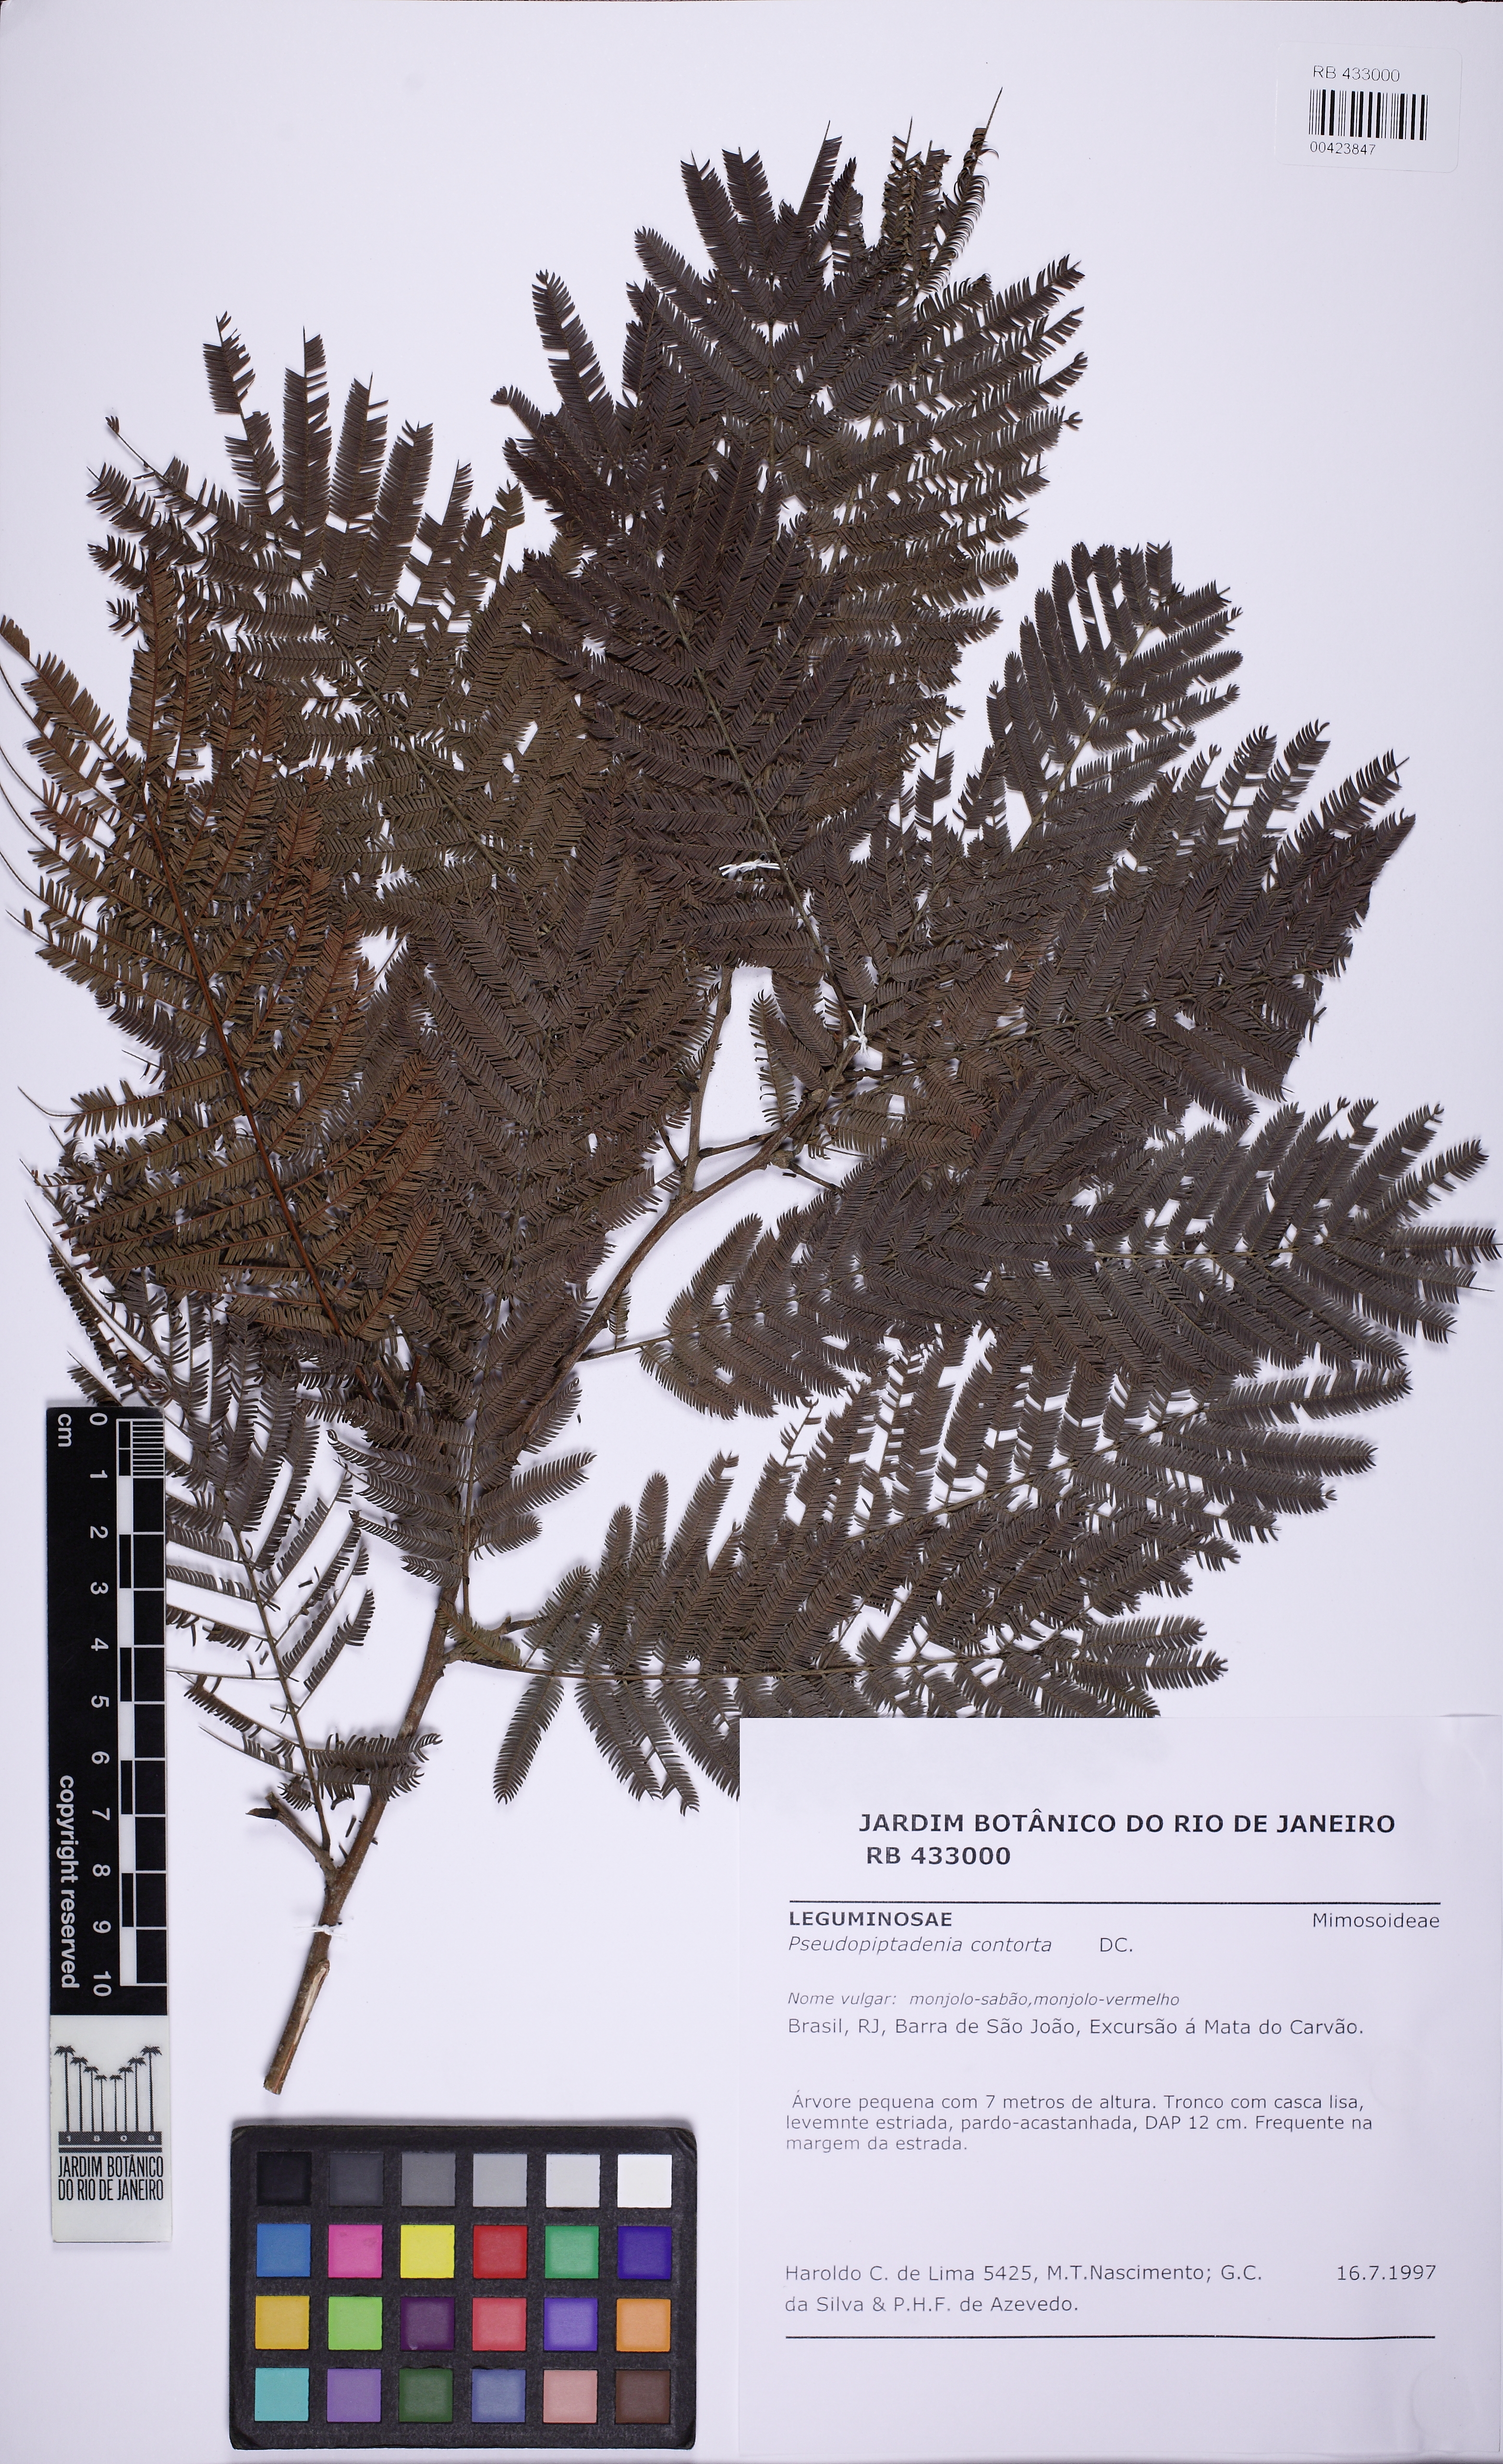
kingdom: Plantae
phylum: Tracheophyta
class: Magnoliopsida
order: Fabales
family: Fabaceae
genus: Pseudopiptadenia
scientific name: Pseudopiptadenia contorta
